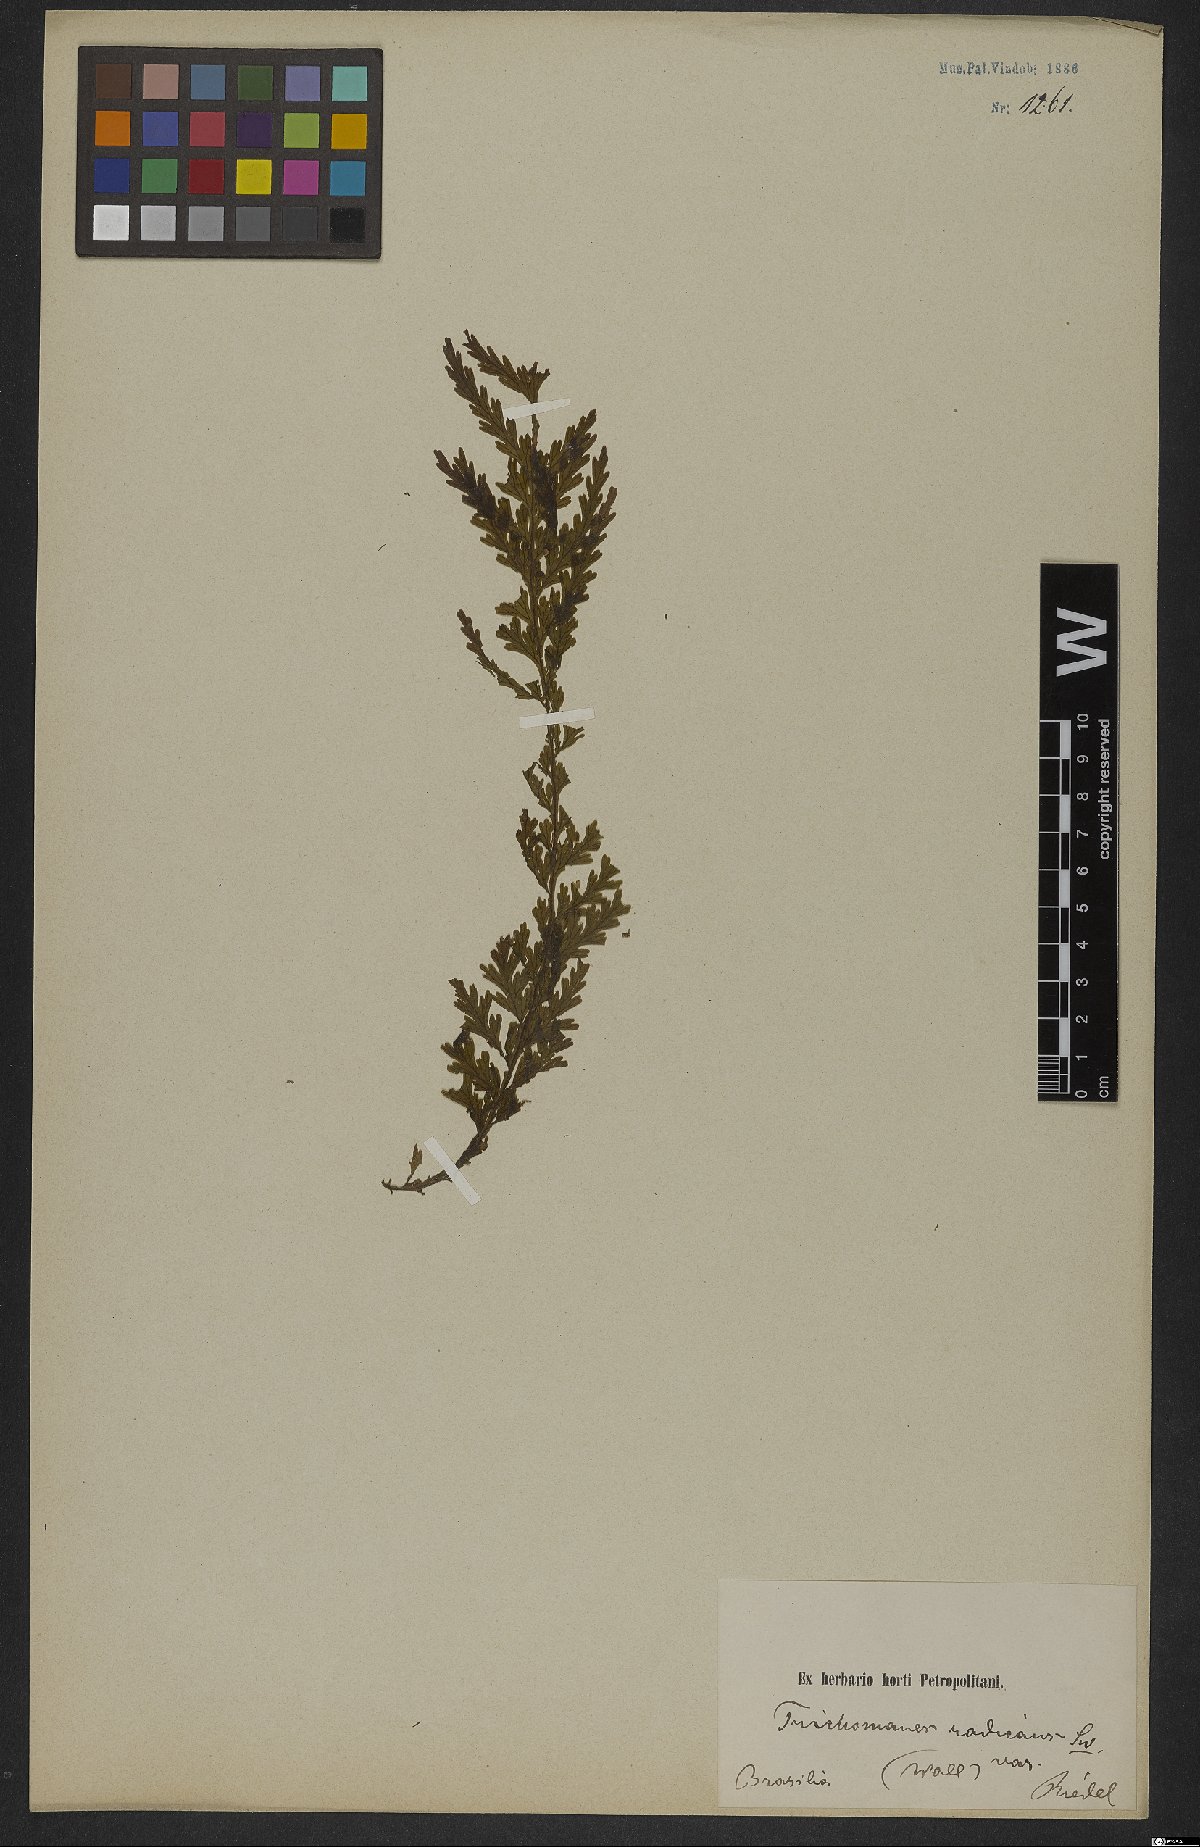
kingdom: Plantae
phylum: Tracheophyta
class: Polypodiopsida
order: Hymenophyllales
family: Hymenophyllaceae
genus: Vandenboschia
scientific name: Vandenboschia radicans
